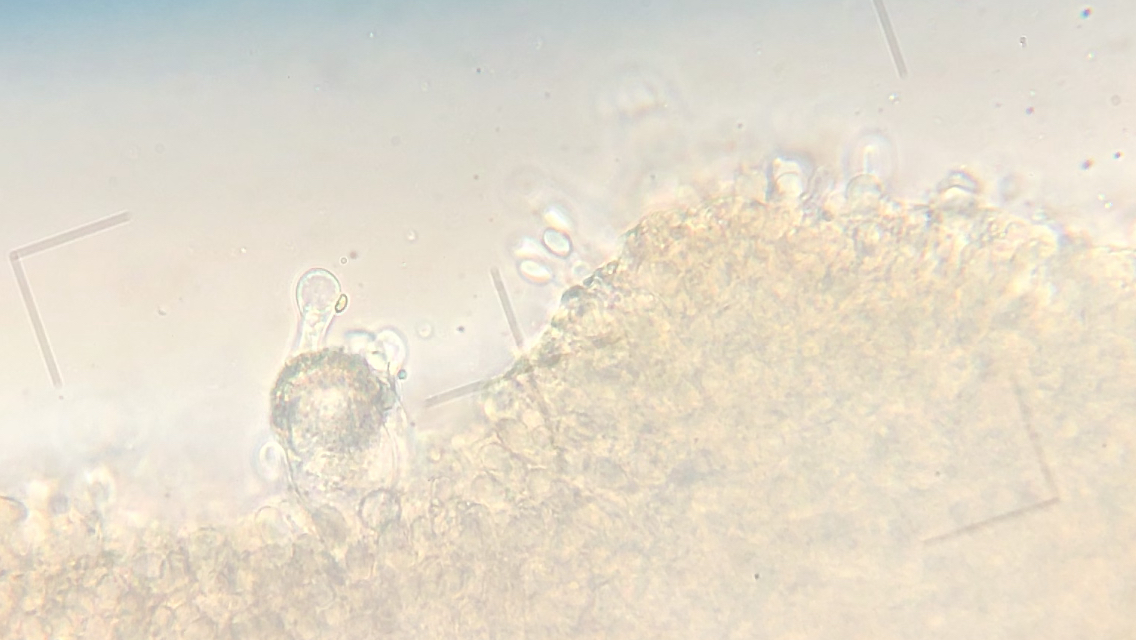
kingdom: Fungi
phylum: Basidiomycota
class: Agaricomycetes
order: Agaricales
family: Physalacriaceae
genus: Strobilurus
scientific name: Strobilurus stephanocystis
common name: fyrre-koglehat
